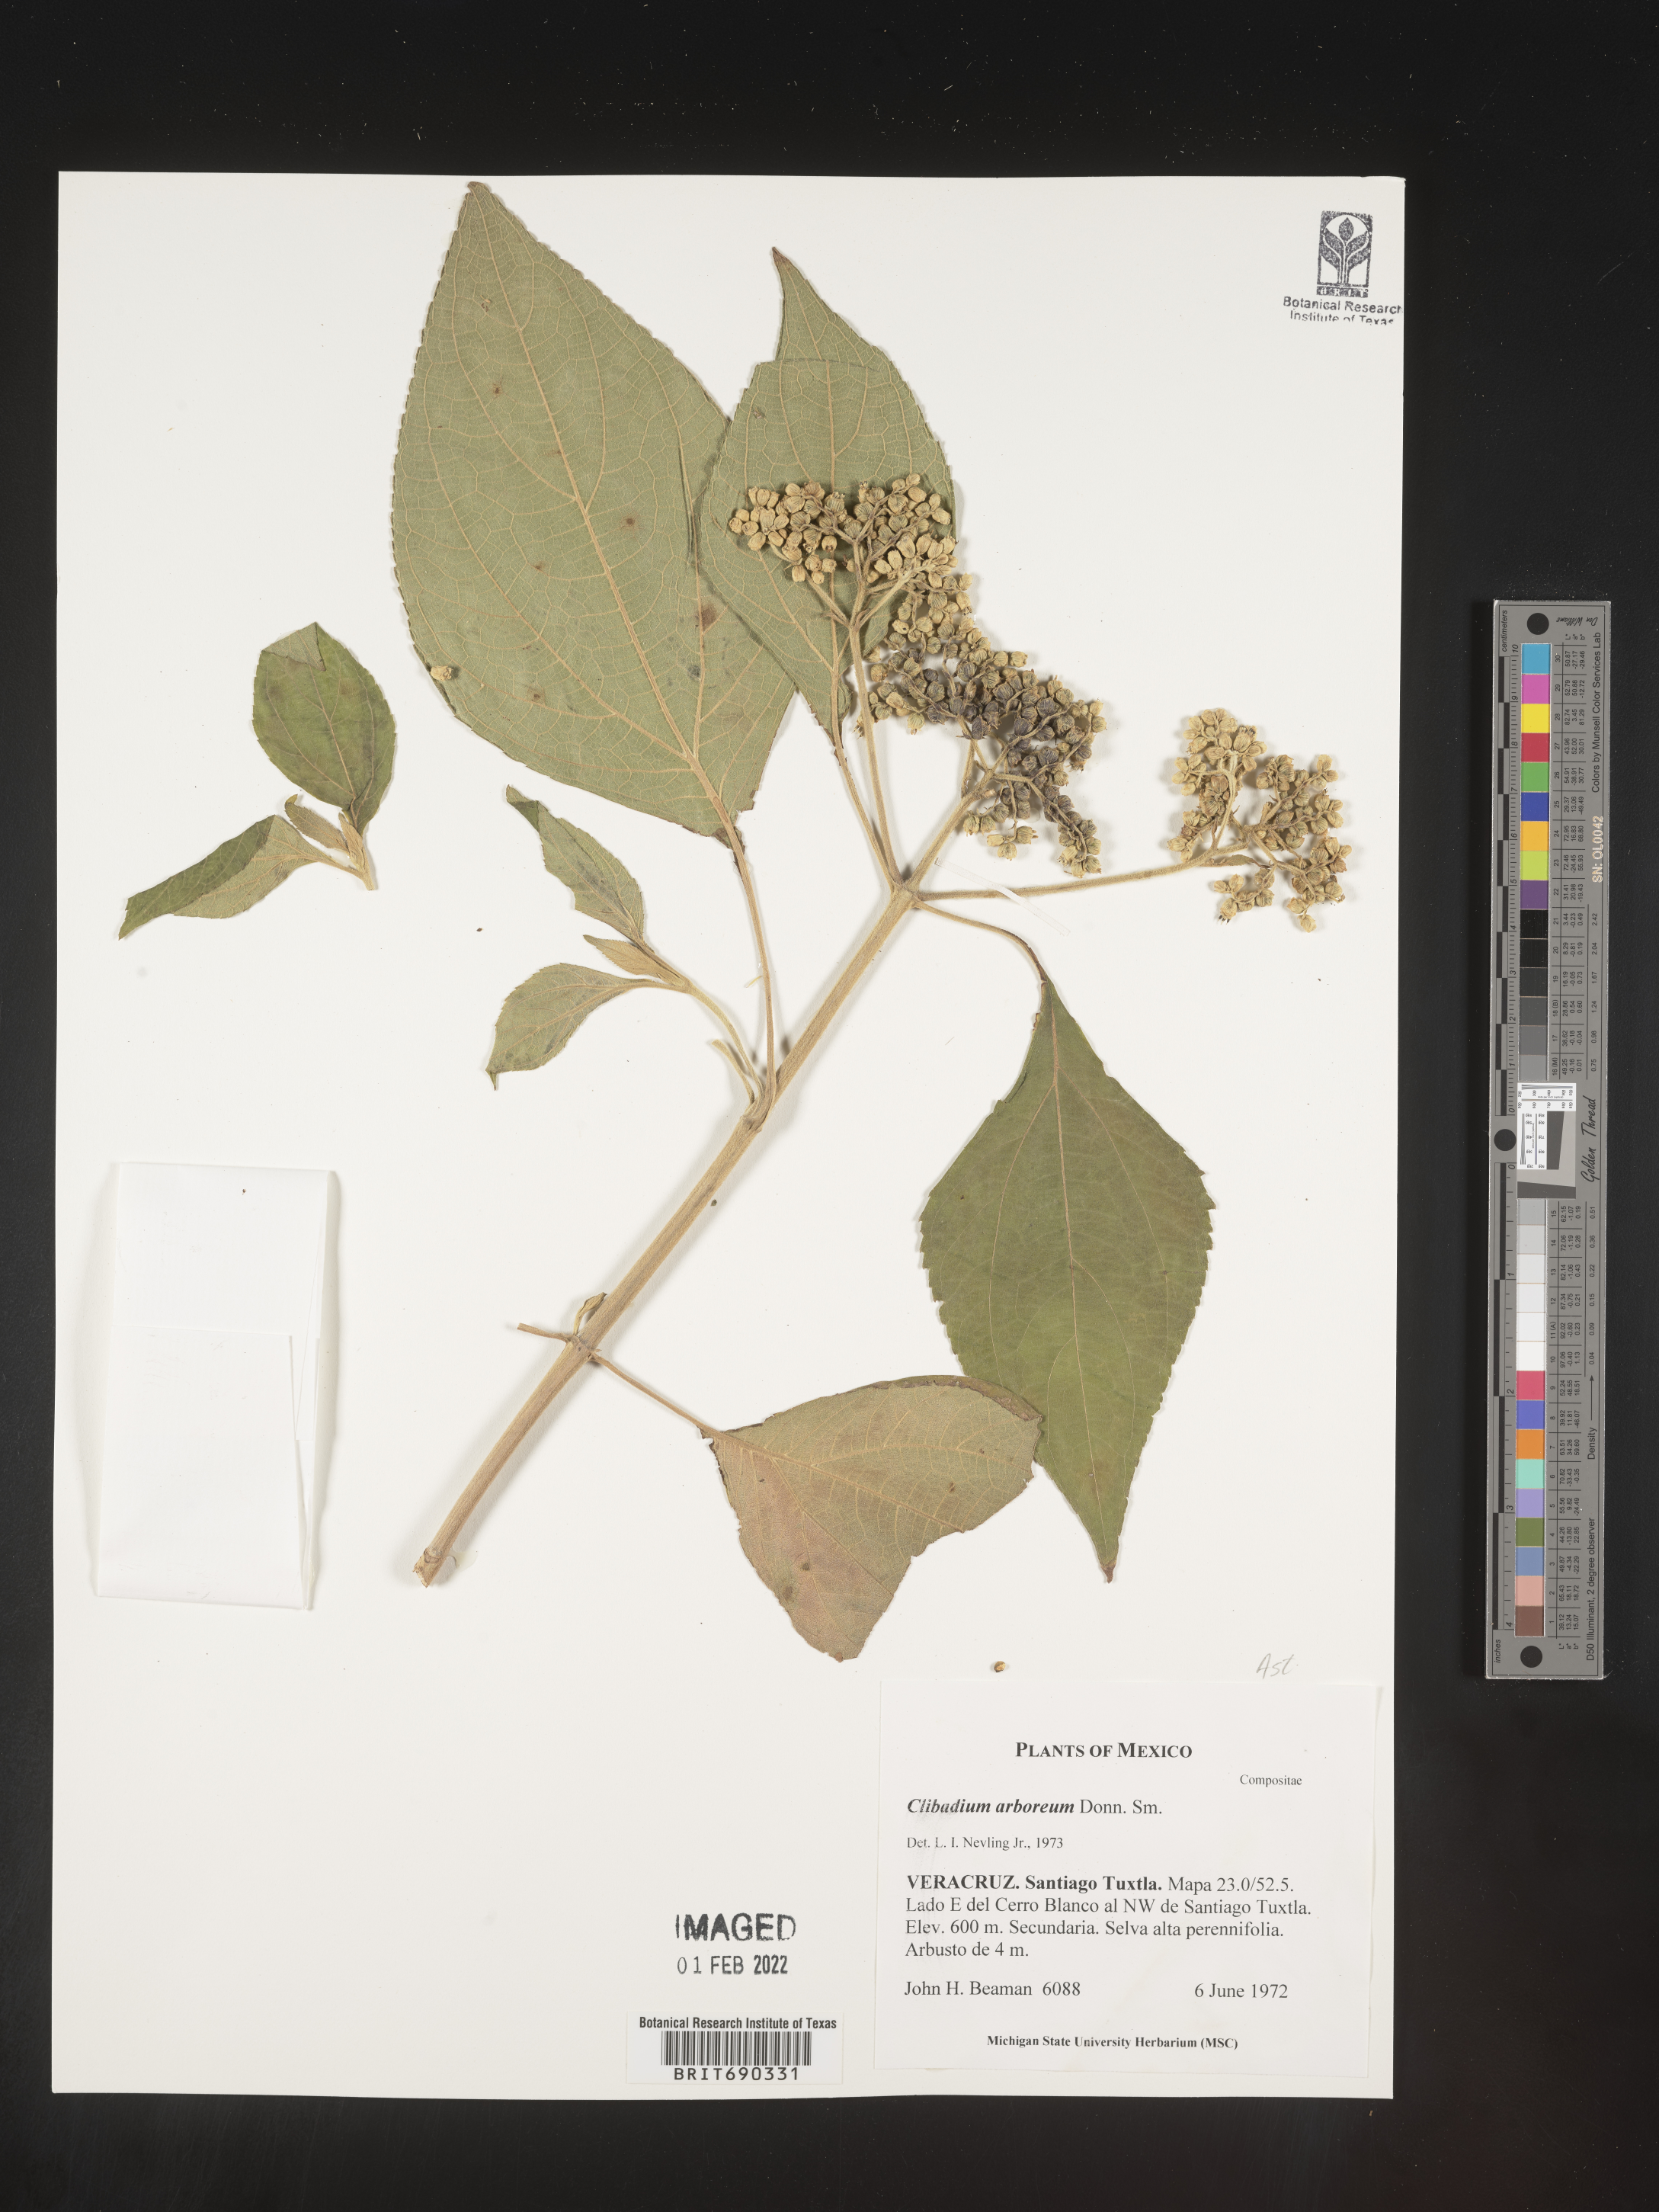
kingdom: Plantae
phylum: Tracheophyta
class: Magnoliopsida
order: Asterales
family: Asteraceae
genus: Clibadium
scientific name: Clibadium
